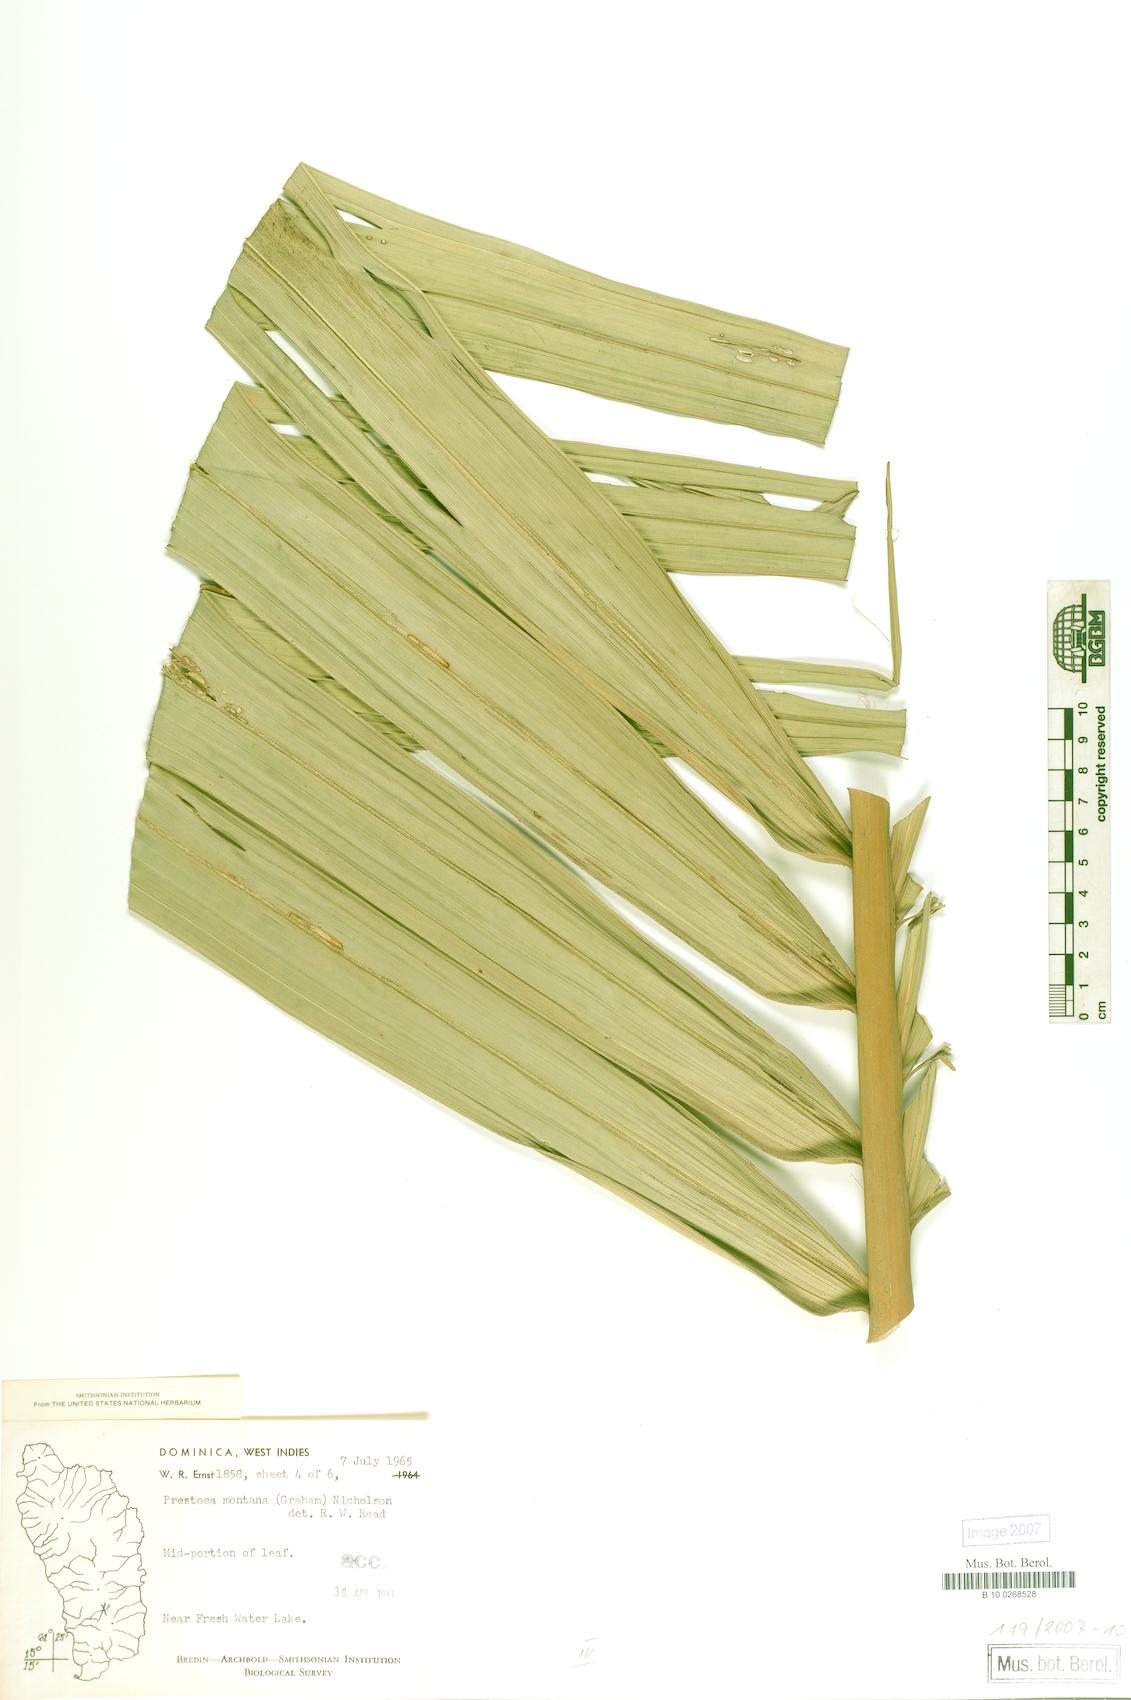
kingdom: Plantae
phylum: Tracheophyta
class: Liliopsida
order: Arecales
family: Arecaceae
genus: Prestoea
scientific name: Prestoea acuminata
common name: Sierran palm
